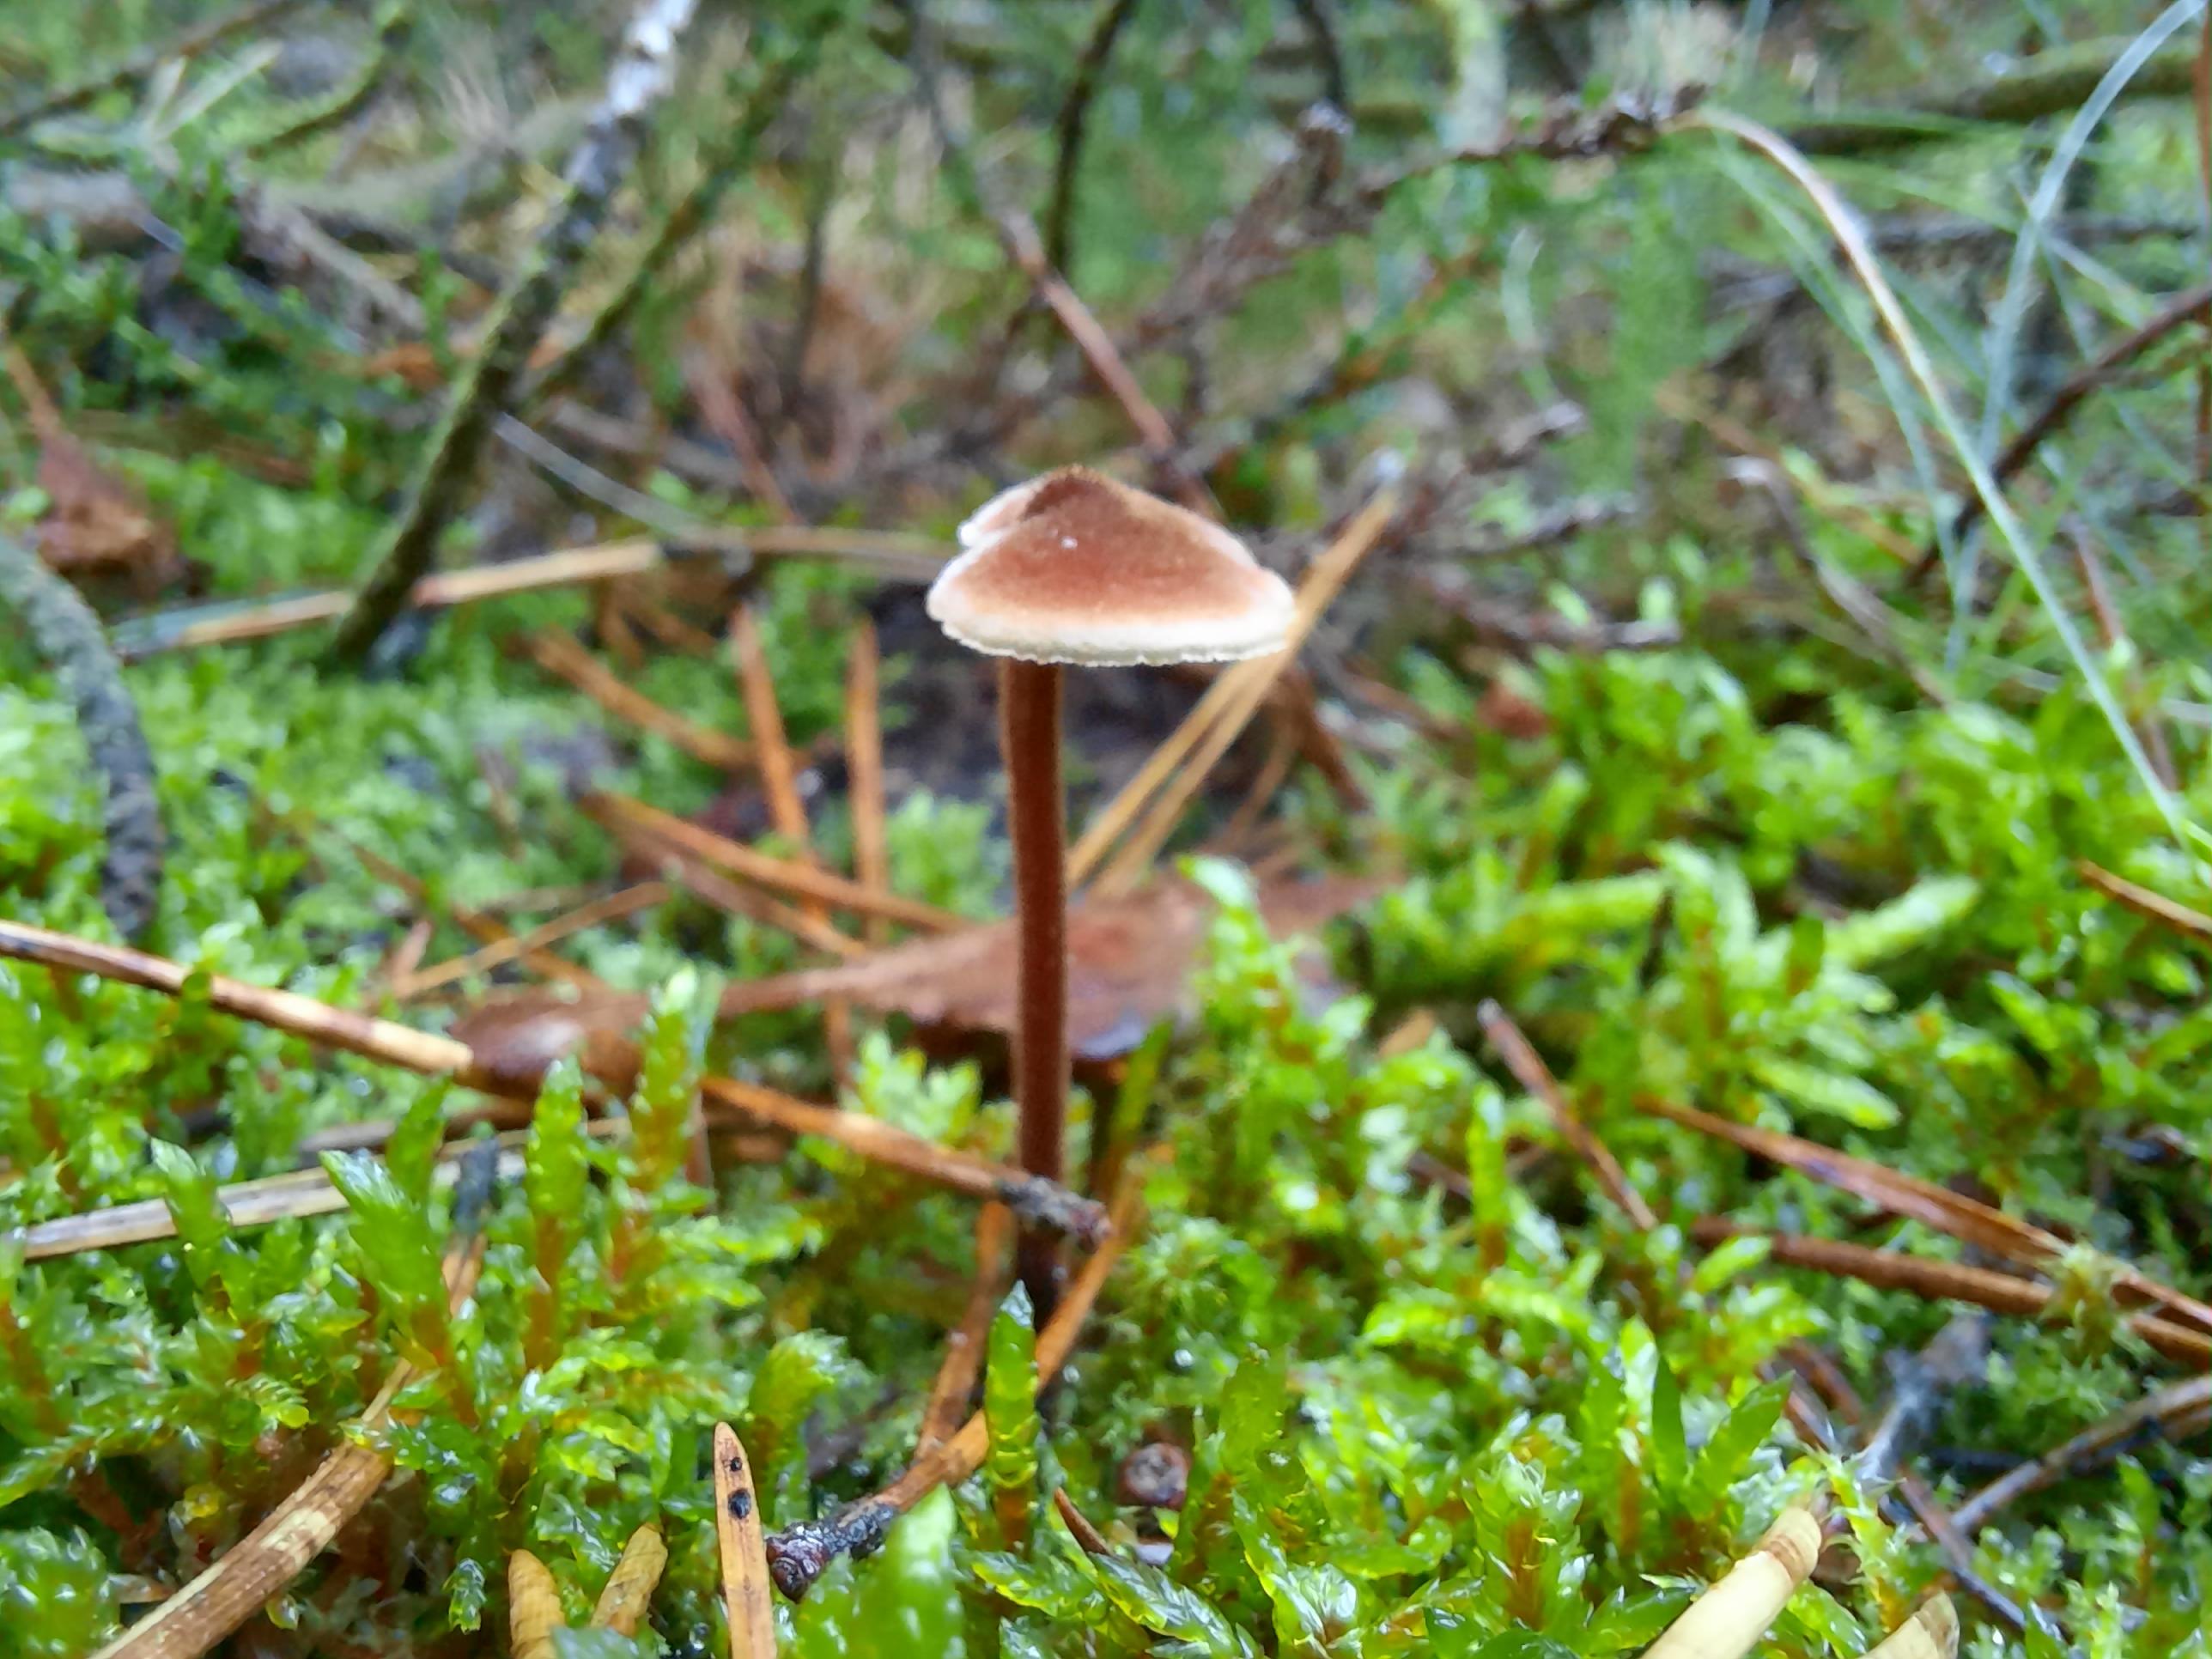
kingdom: Fungi
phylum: Basidiomycota
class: Agaricomycetes
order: Russulales
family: Auriscalpiaceae
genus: Auriscalpium
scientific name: Auriscalpium vulgare
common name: koglepigsvamp
